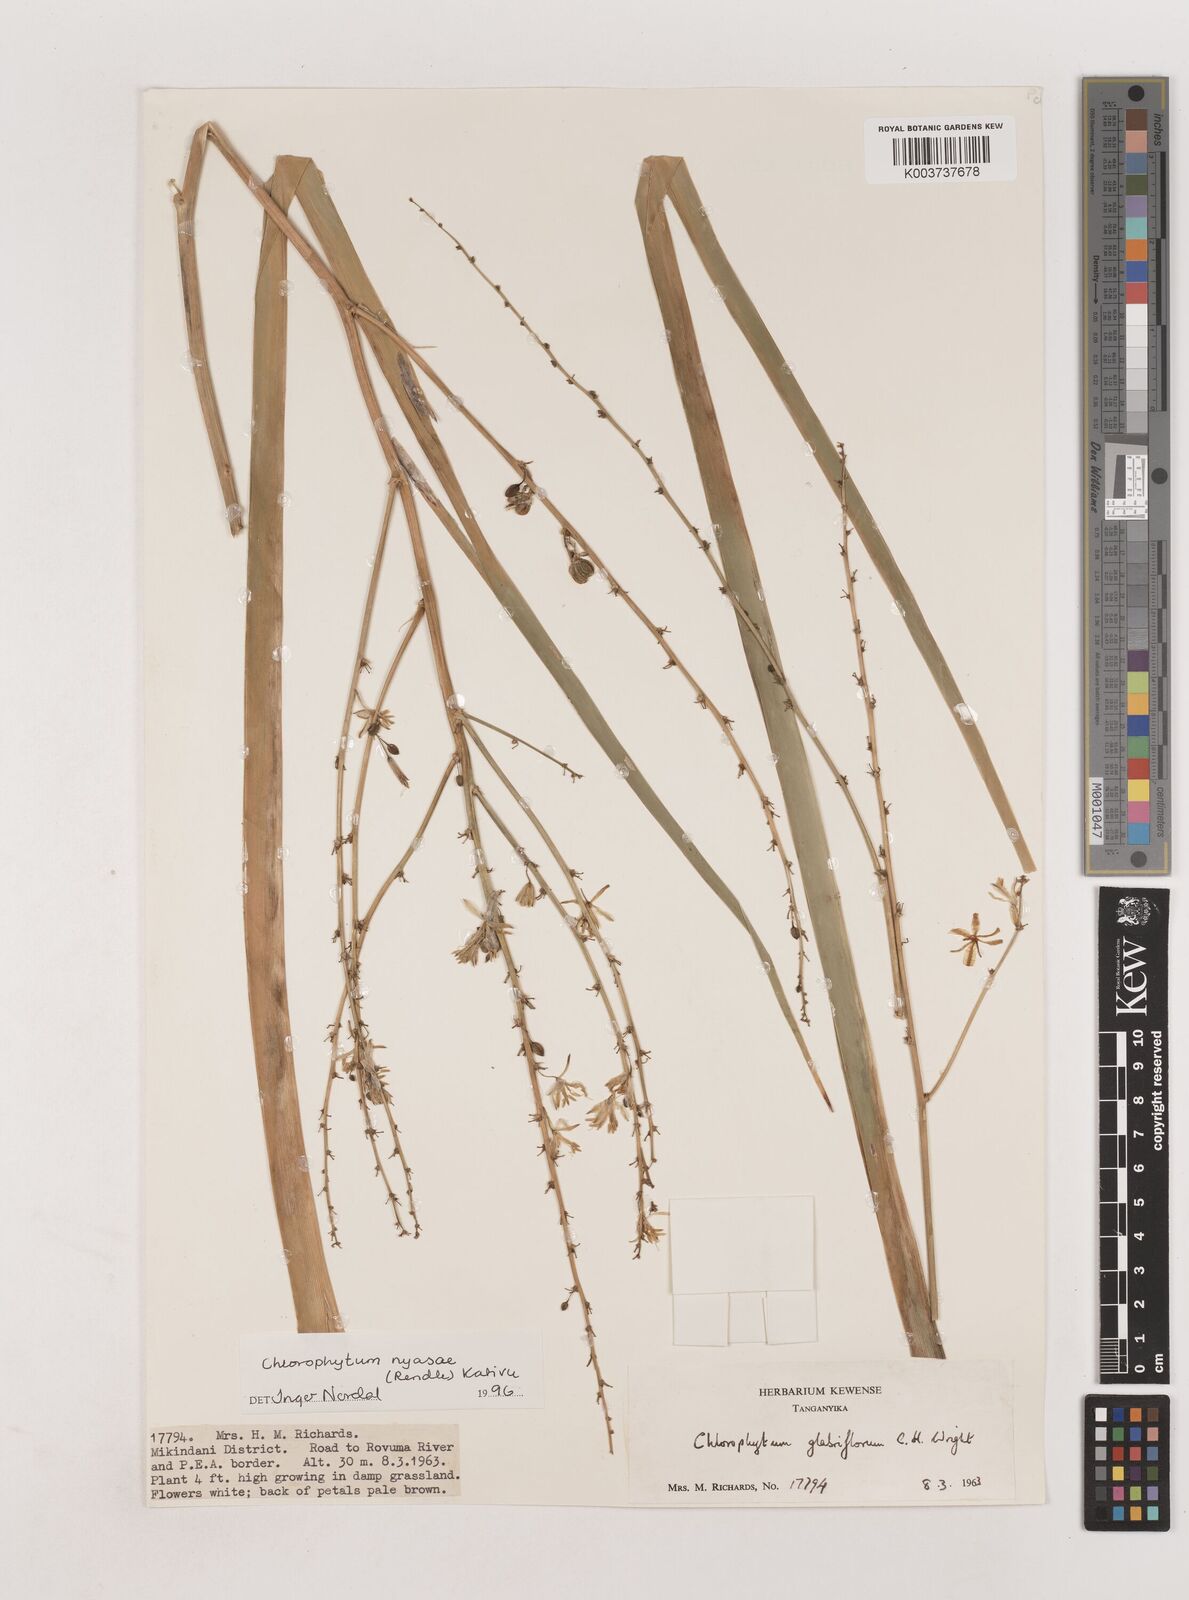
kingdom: Plantae
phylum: Tracheophyta
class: Liliopsida
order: Asparagales
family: Asparagaceae
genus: Chlorophytum
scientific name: Chlorophytum nyasae
